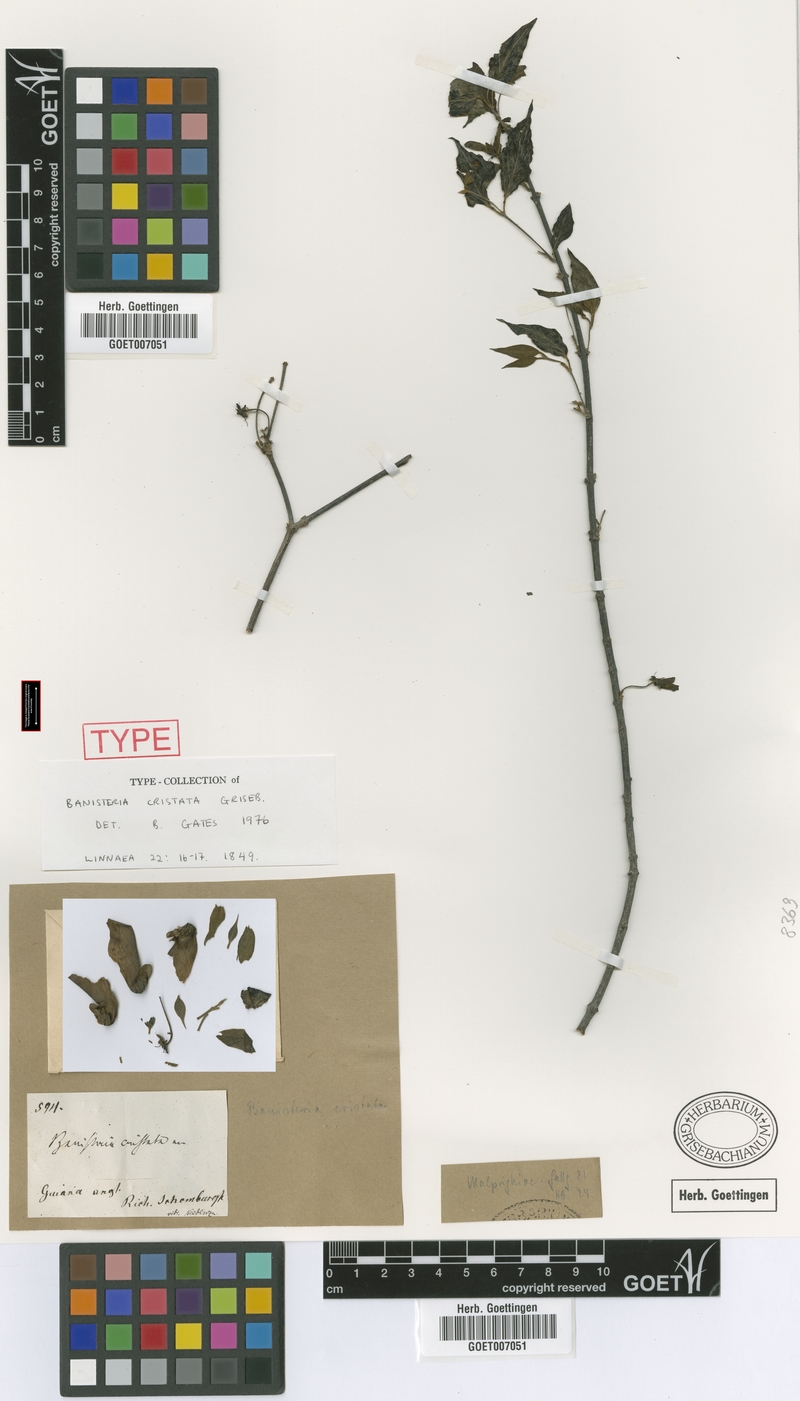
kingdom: Plantae
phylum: Tracheophyta
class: Magnoliopsida
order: Malpighiales
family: Malpighiaceae
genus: Diplopterys
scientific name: Diplopterys cristata
